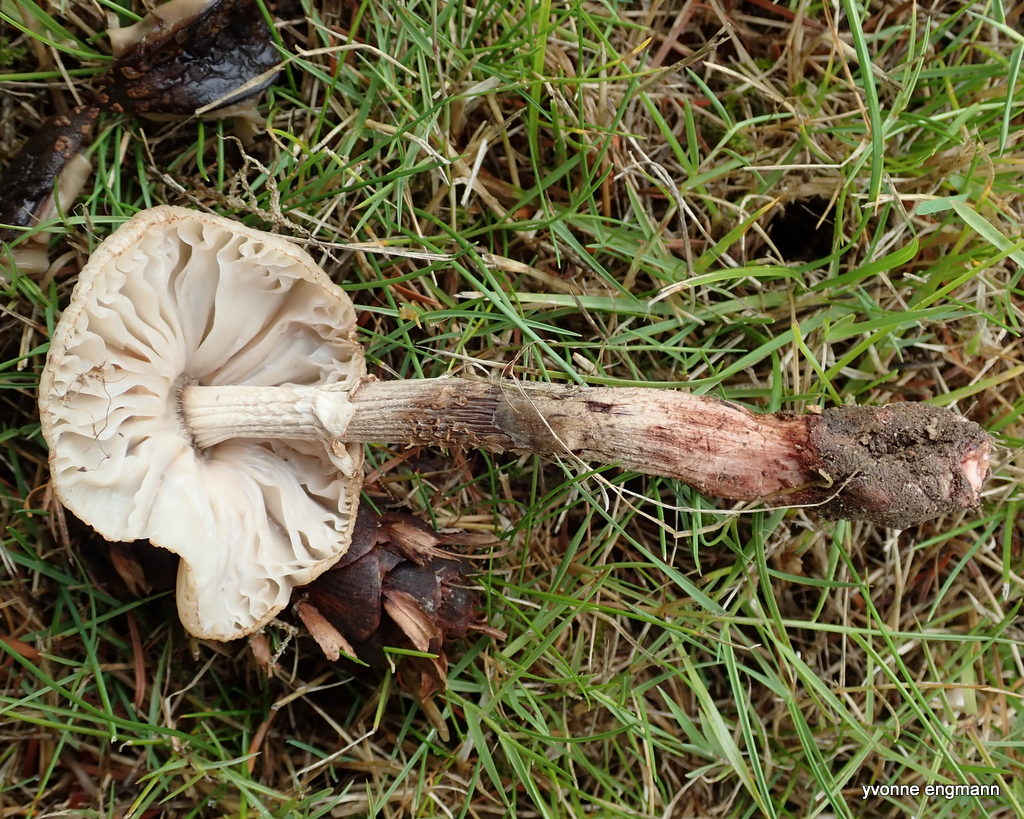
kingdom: Fungi
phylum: Basidiomycota
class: Agaricomycetes
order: Agaricales
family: Amanitaceae
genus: Amanita
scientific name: Amanita rubescens
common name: rødmende fluesvamp
